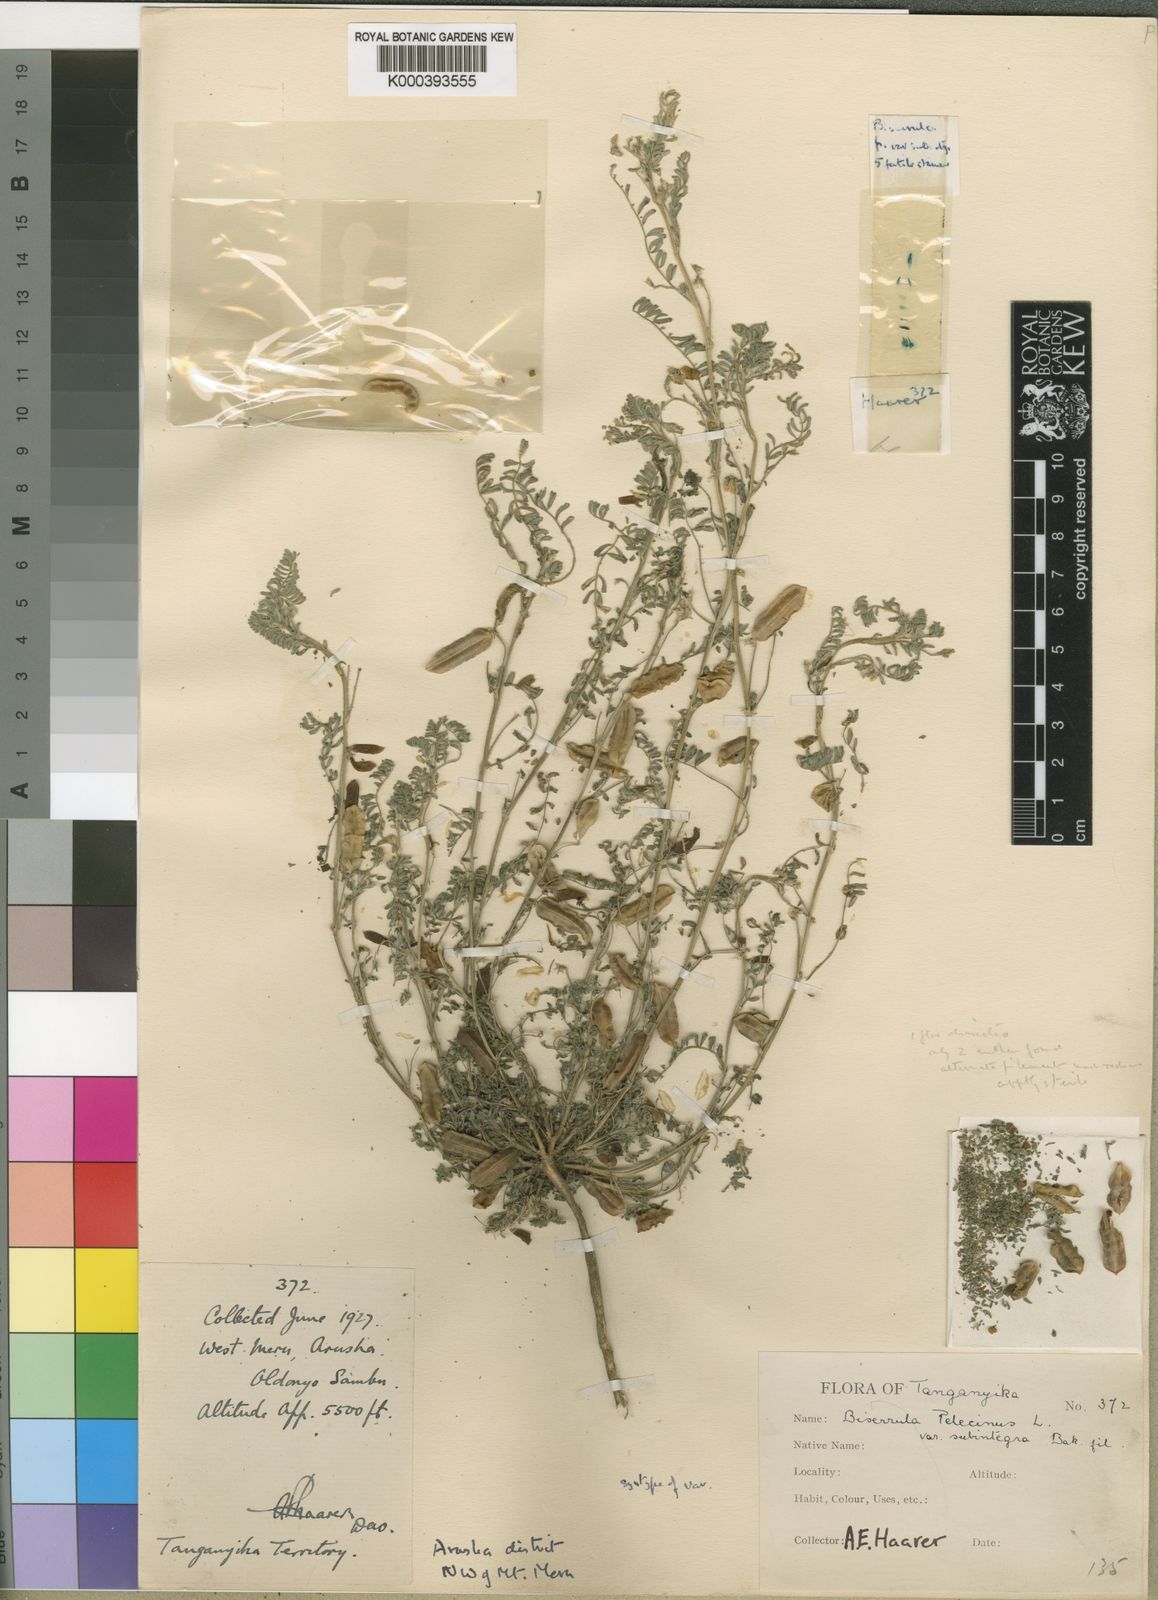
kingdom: Plantae
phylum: Tracheophyta
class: Magnoliopsida
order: Fabales
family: Fabaceae
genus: Biserrula
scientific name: Biserrula pelecinus
